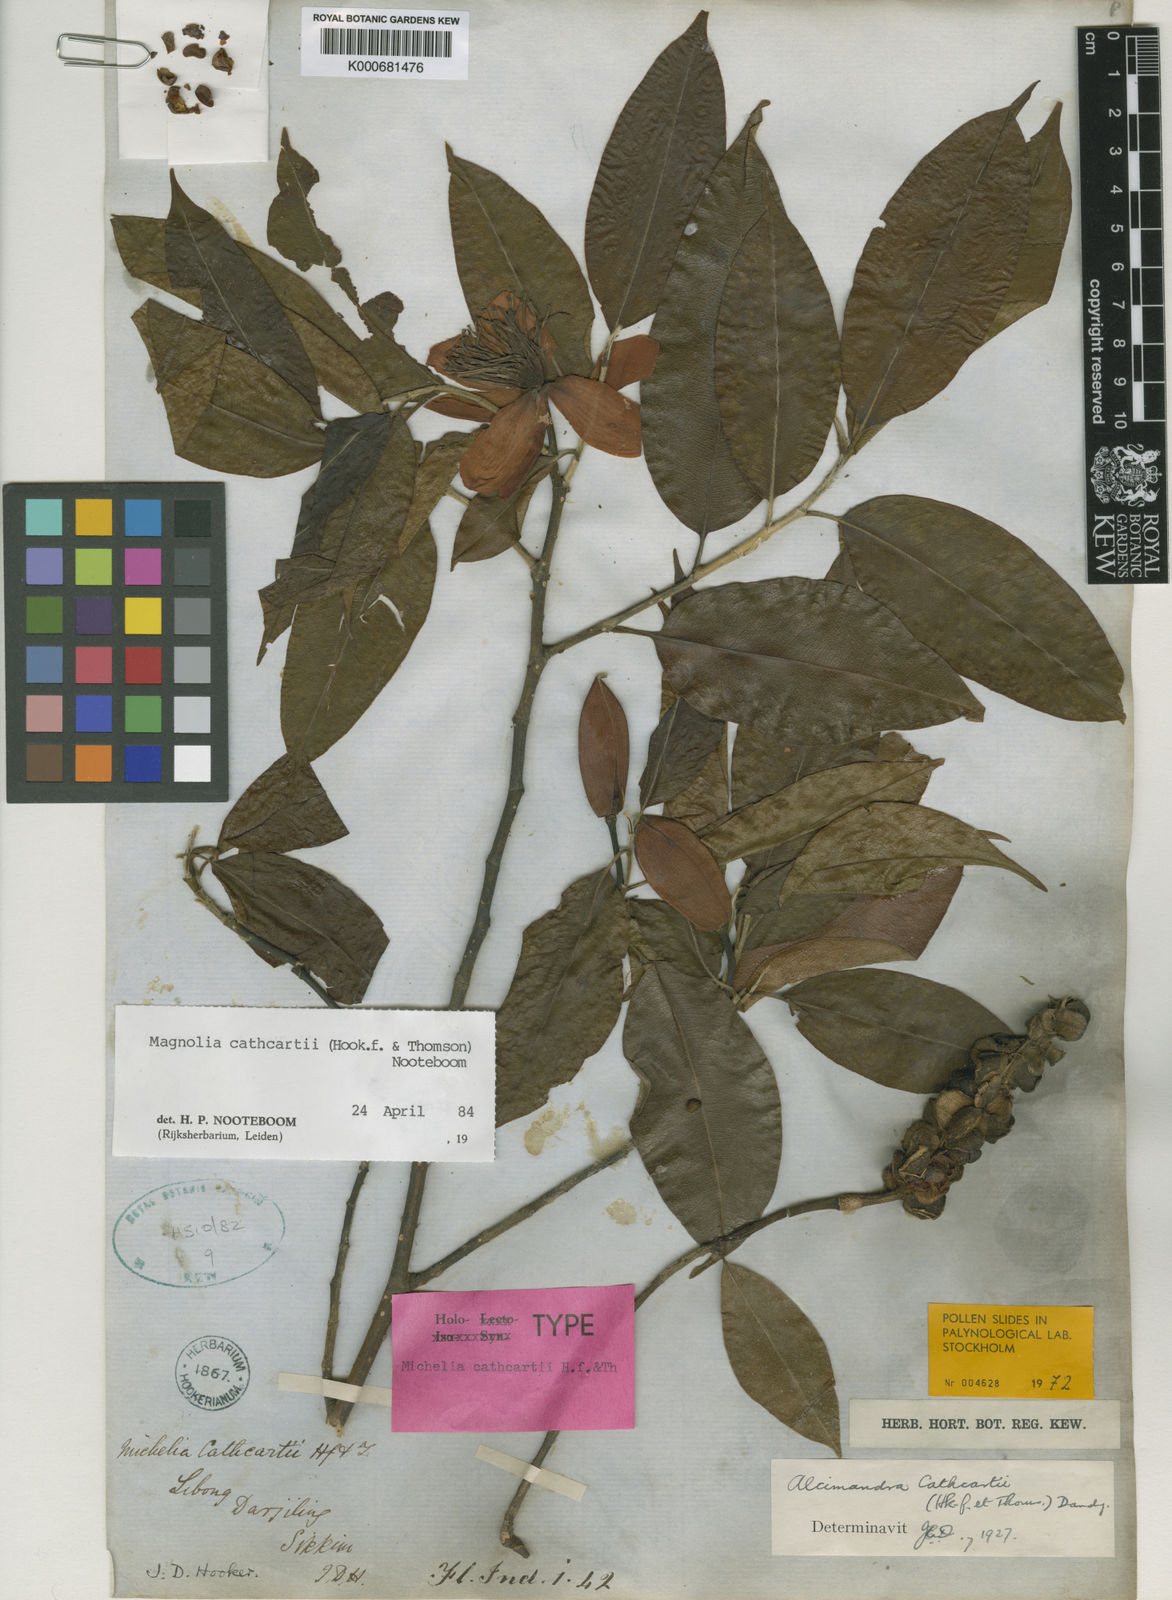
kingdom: Plantae
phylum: Tracheophyta
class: Magnoliopsida
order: Magnoliales
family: Magnoliaceae
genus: Magnolia
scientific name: Magnolia cathcartii
